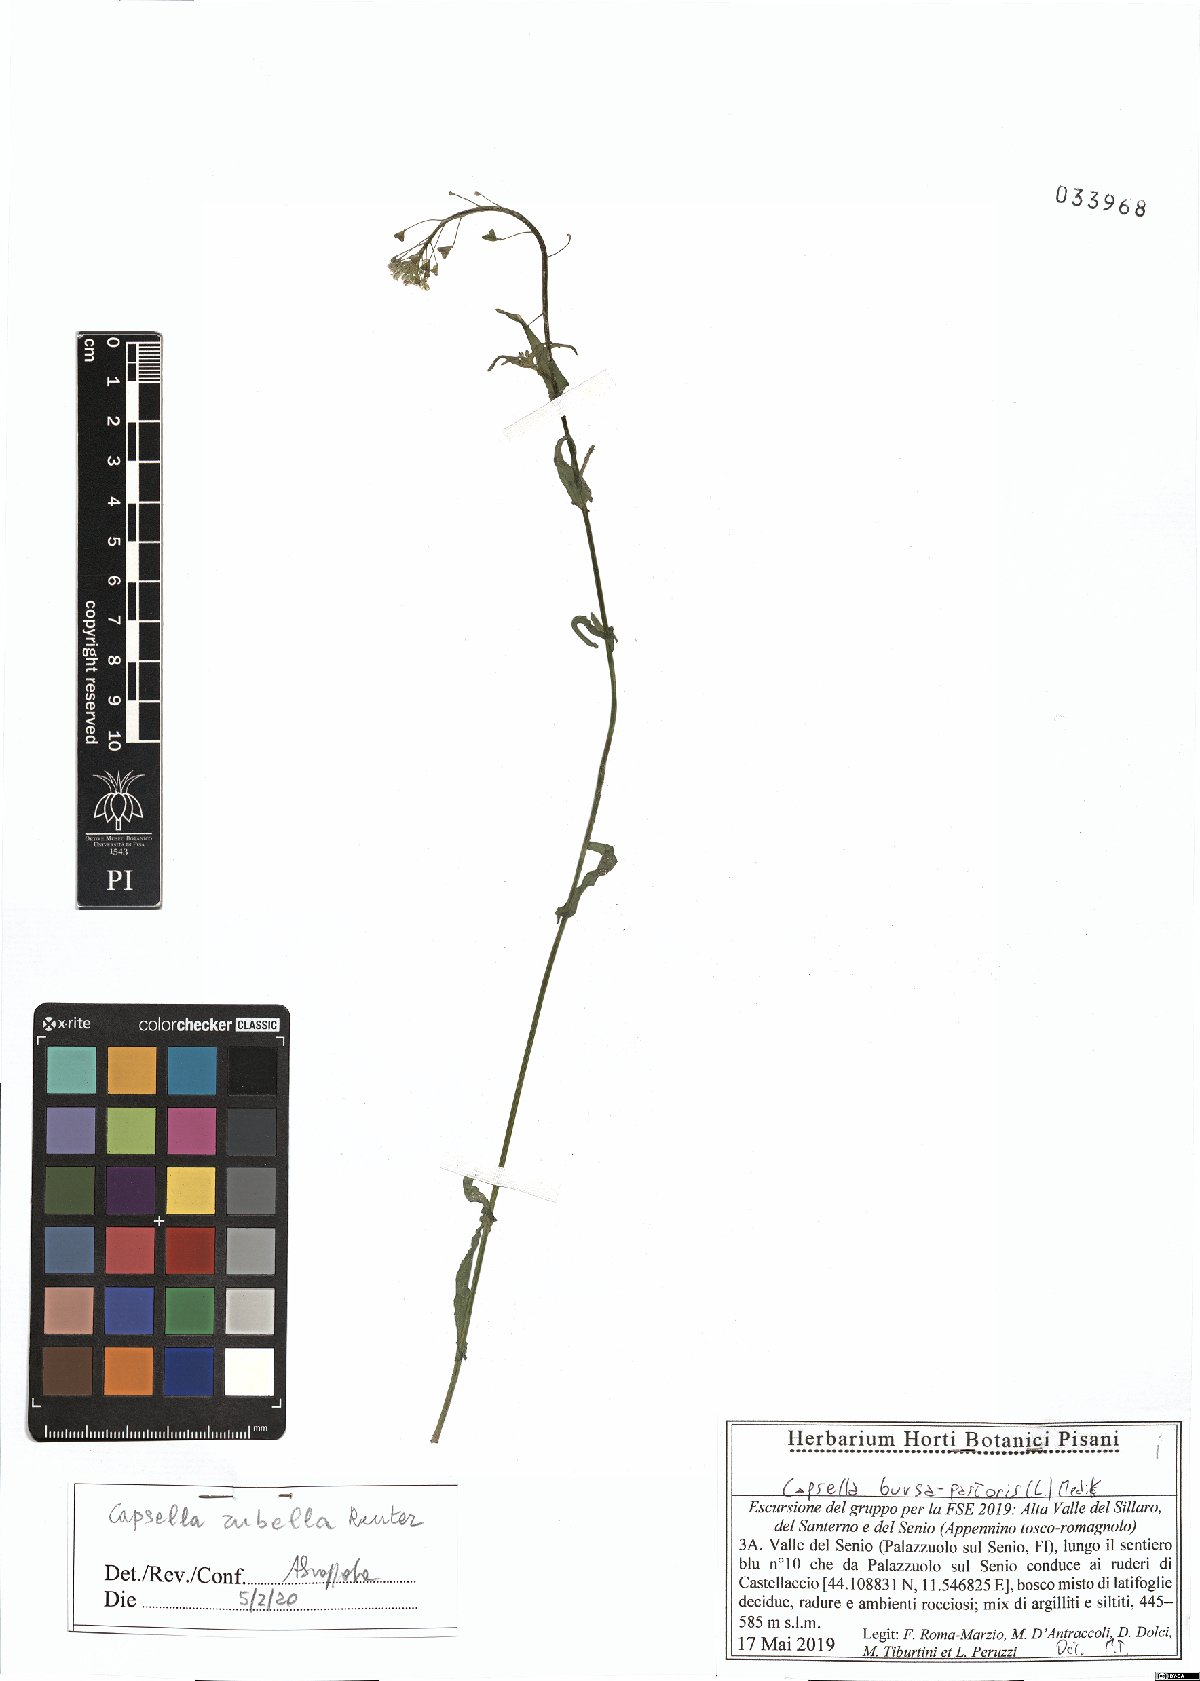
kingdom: Plantae
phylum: Tracheophyta
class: Magnoliopsida
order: Brassicales
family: Brassicaceae
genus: Capsella
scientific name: Capsella rubella
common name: Pink shepherd's-purse
